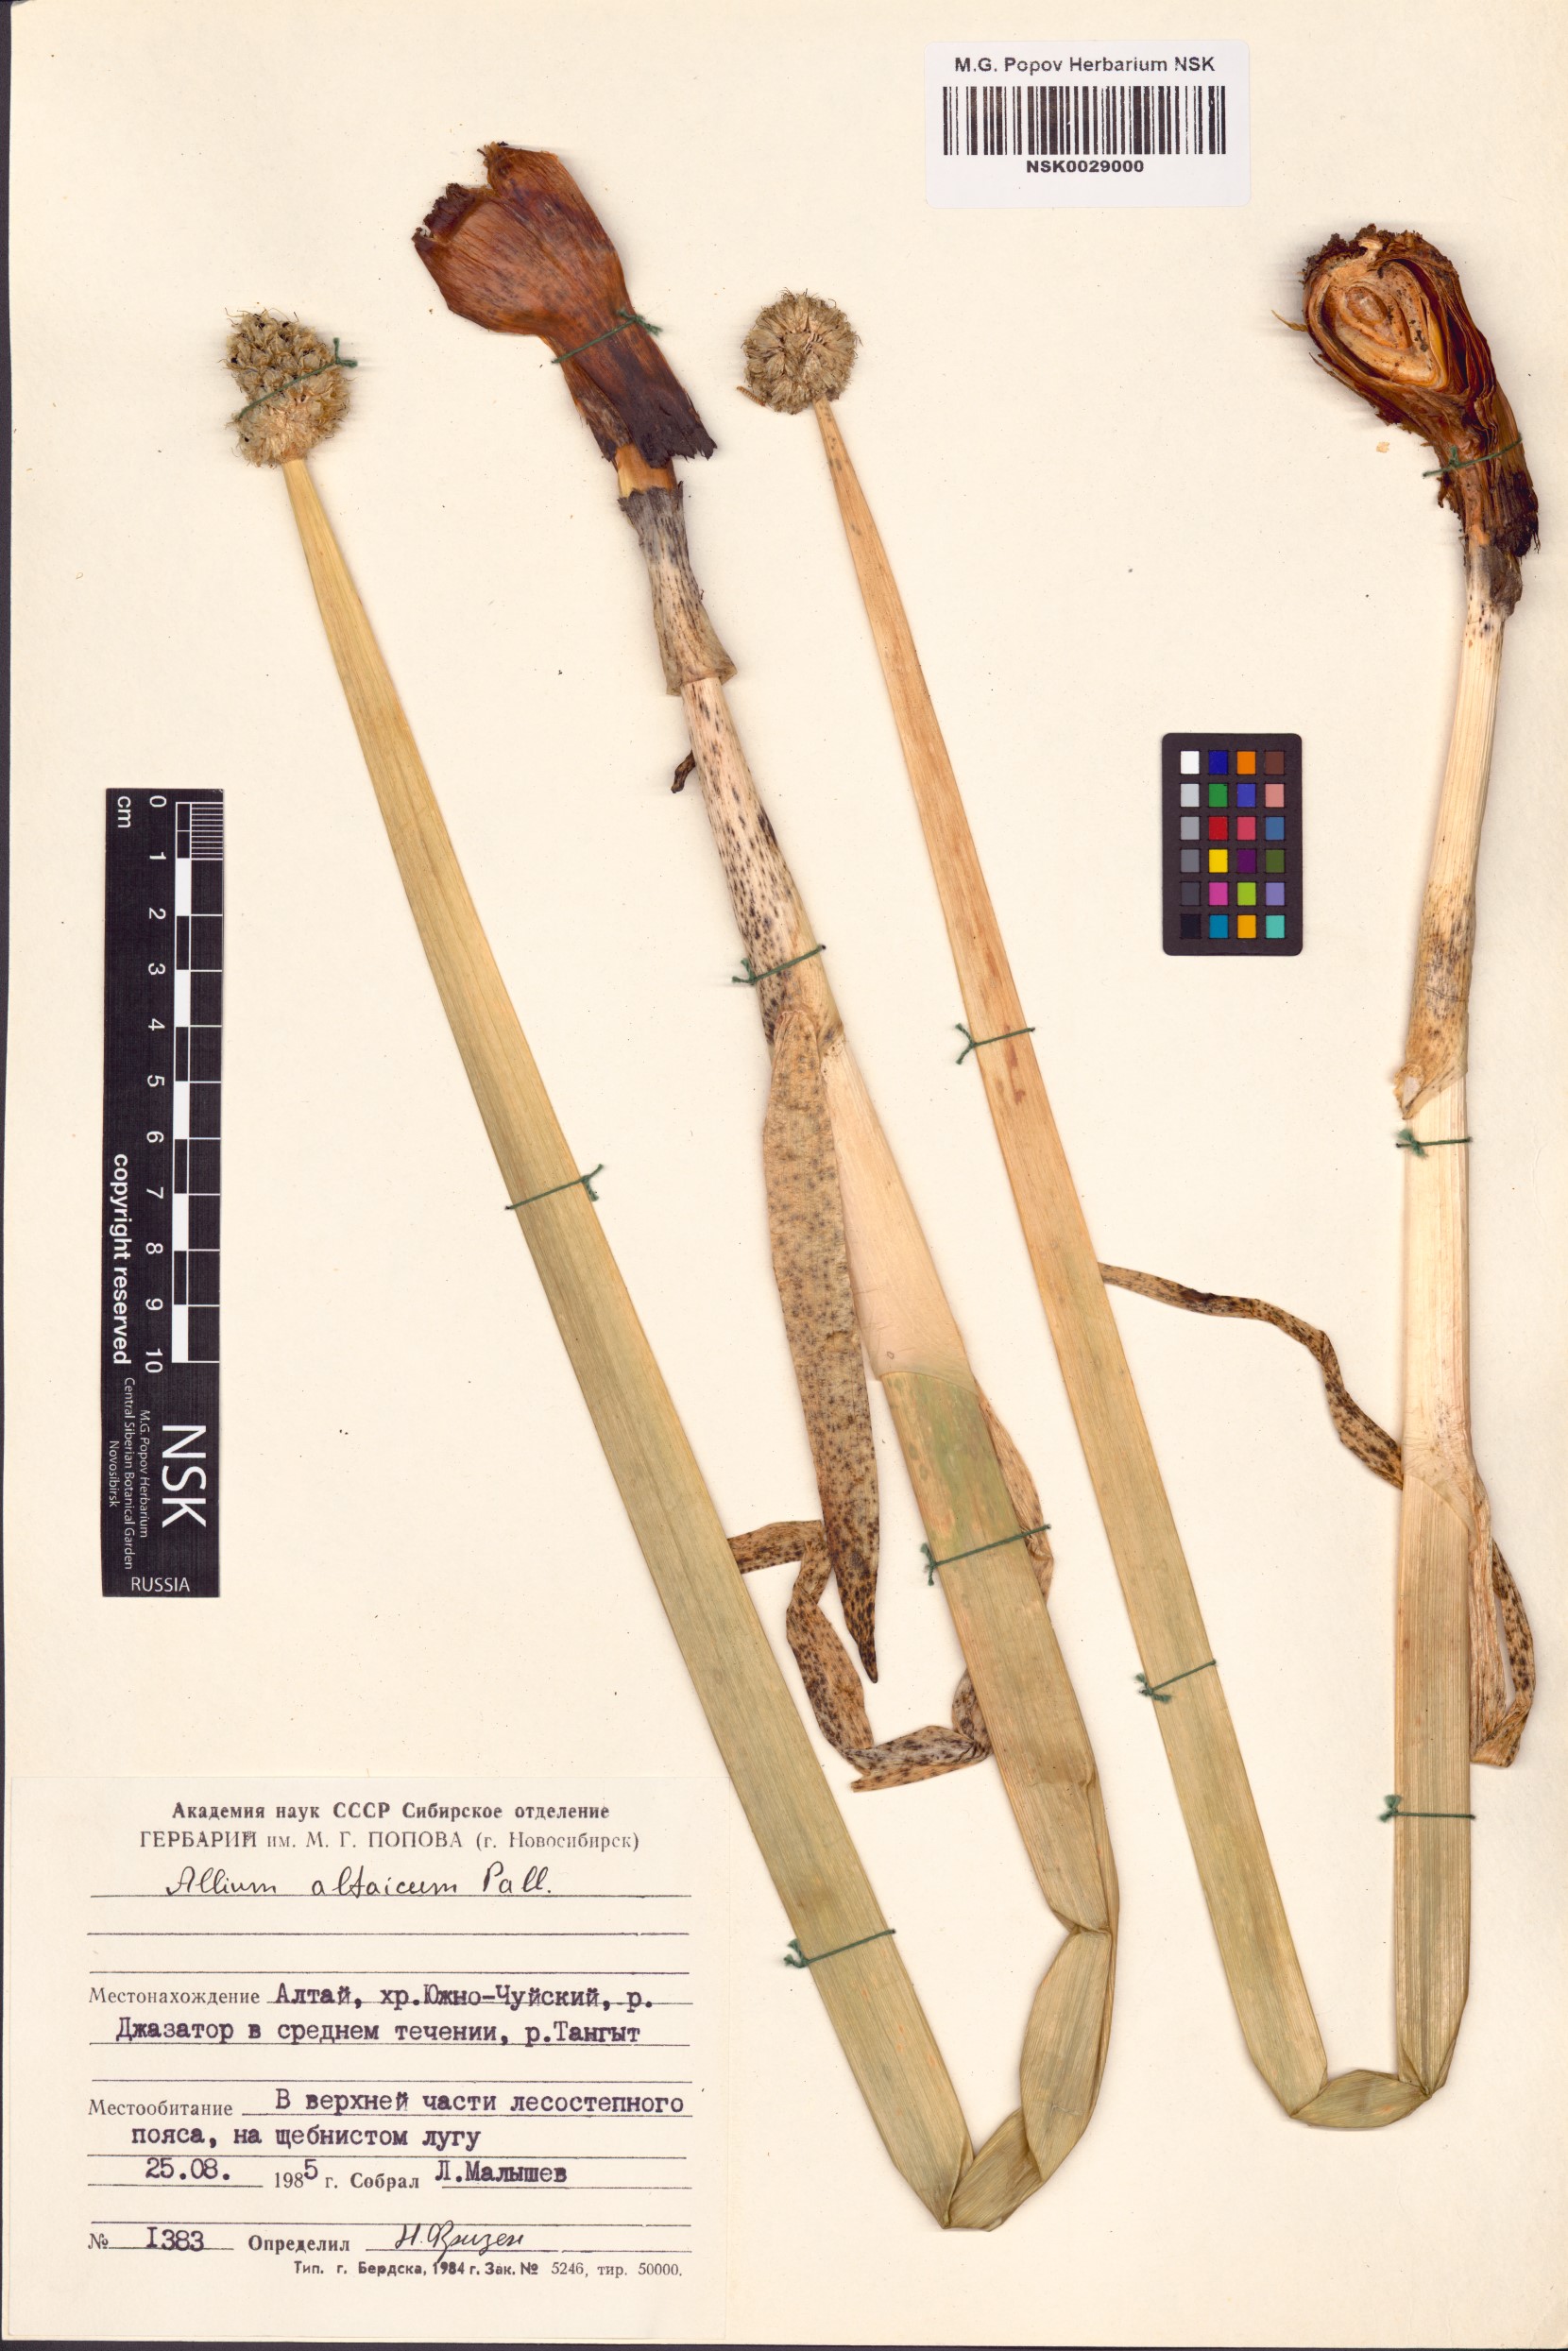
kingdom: Plantae
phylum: Tracheophyta
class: Liliopsida
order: Asparagales
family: Amaryllidaceae
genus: Allium
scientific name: Allium altaicum
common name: Altai onion
